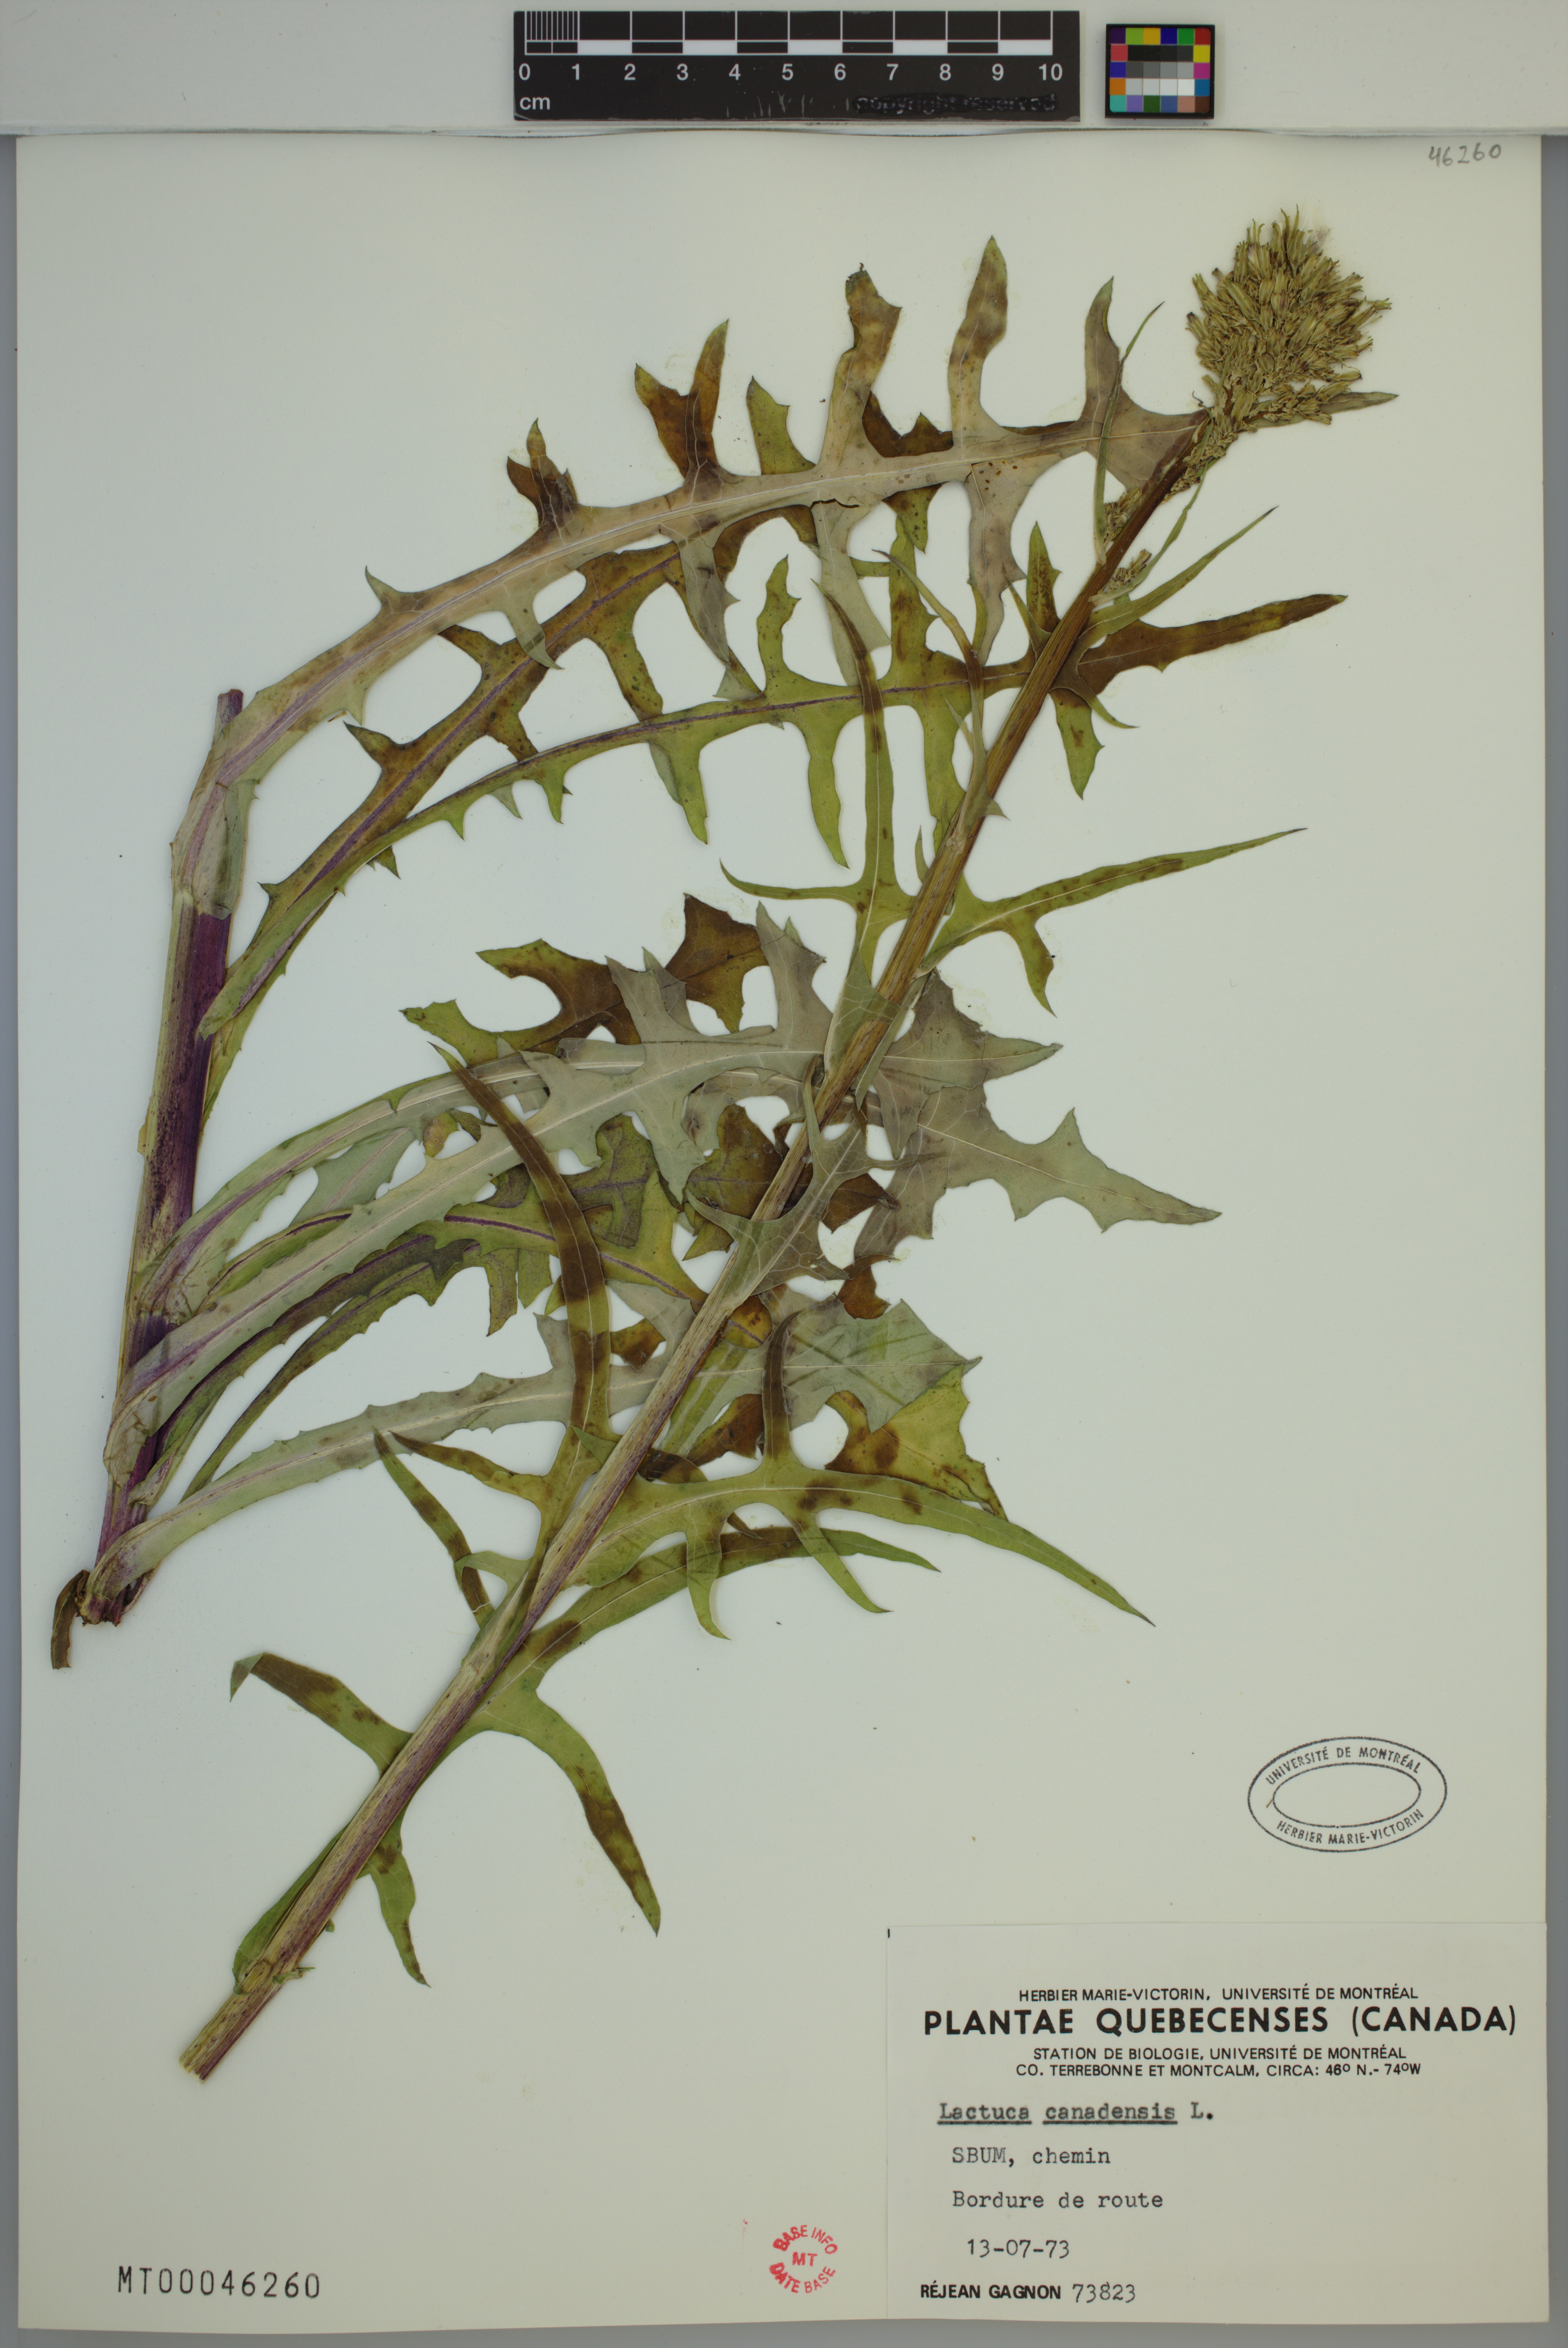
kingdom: Plantae
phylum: Tracheophyta
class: Magnoliopsida
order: Asterales
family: Asteraceae
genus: Lactuca
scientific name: Lactuca canadensis
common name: Canada lettuce
